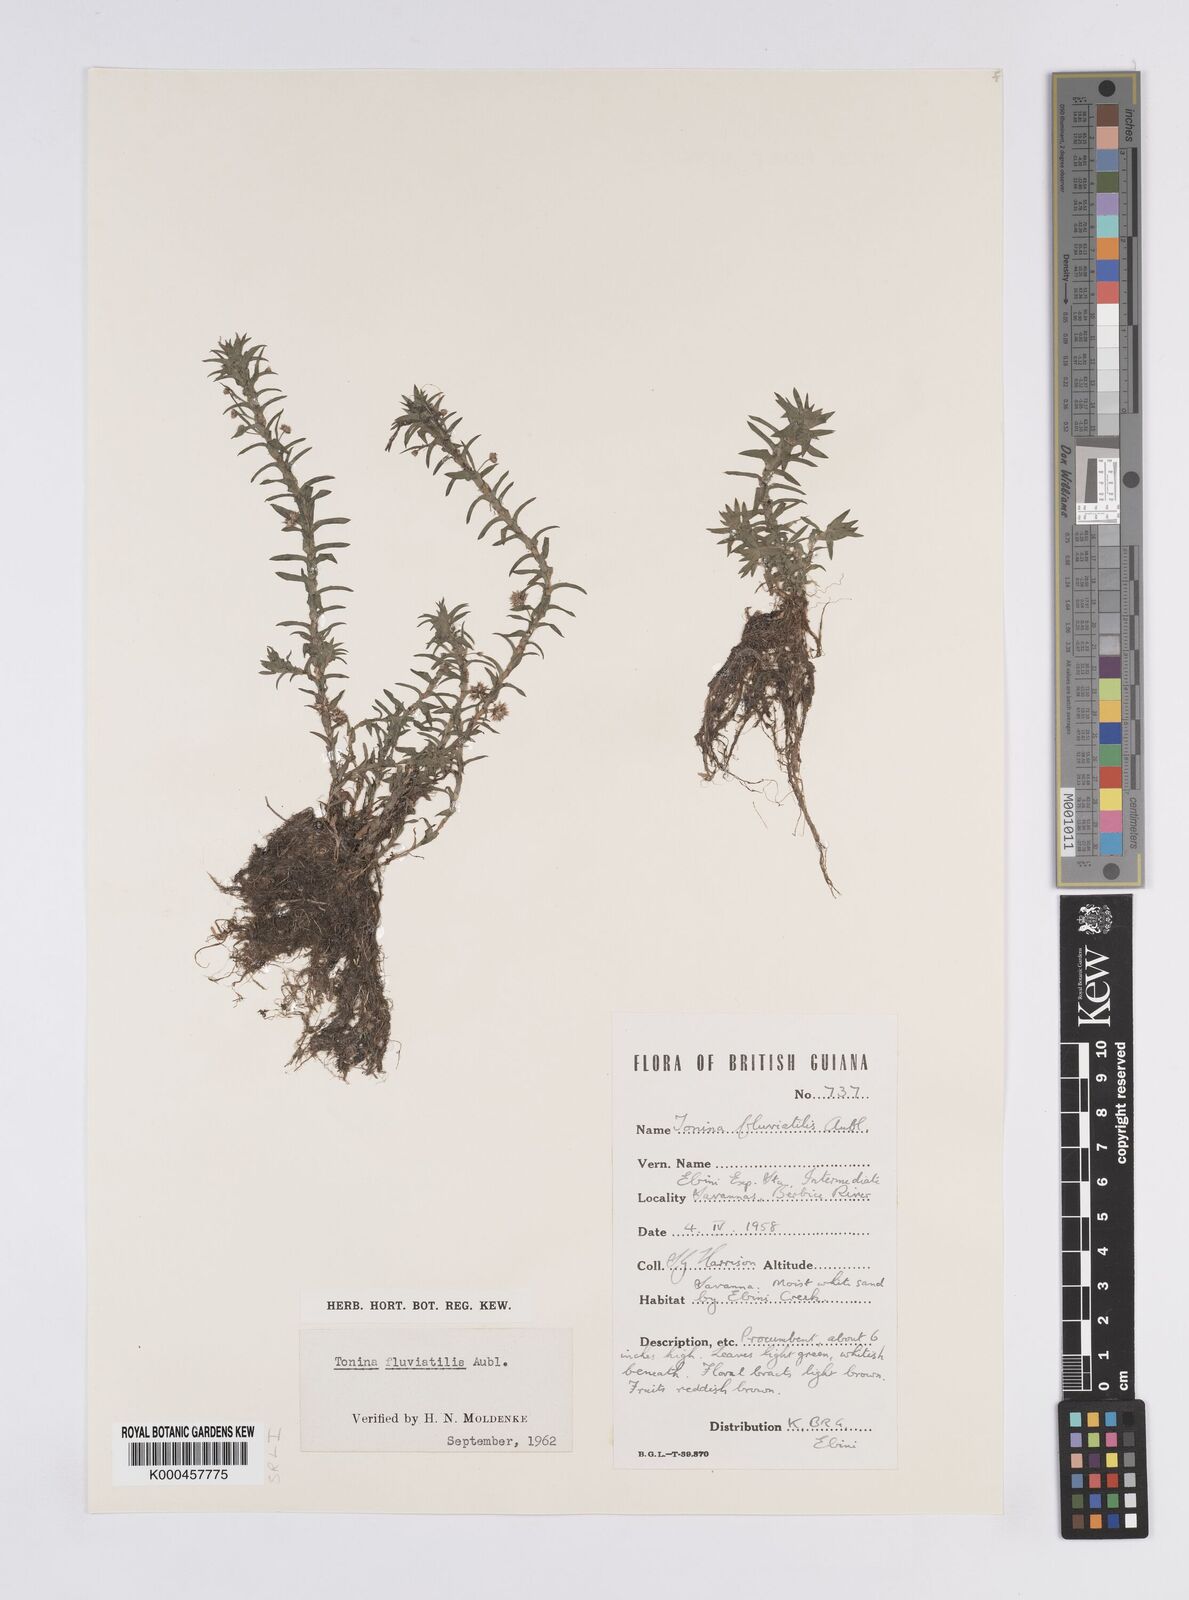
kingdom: Plantae
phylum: Tracheophyta
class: Liliopsida
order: Poales
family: Eriocaulaceae
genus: Paepalanthus
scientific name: Paepalanthus fluviatilis
